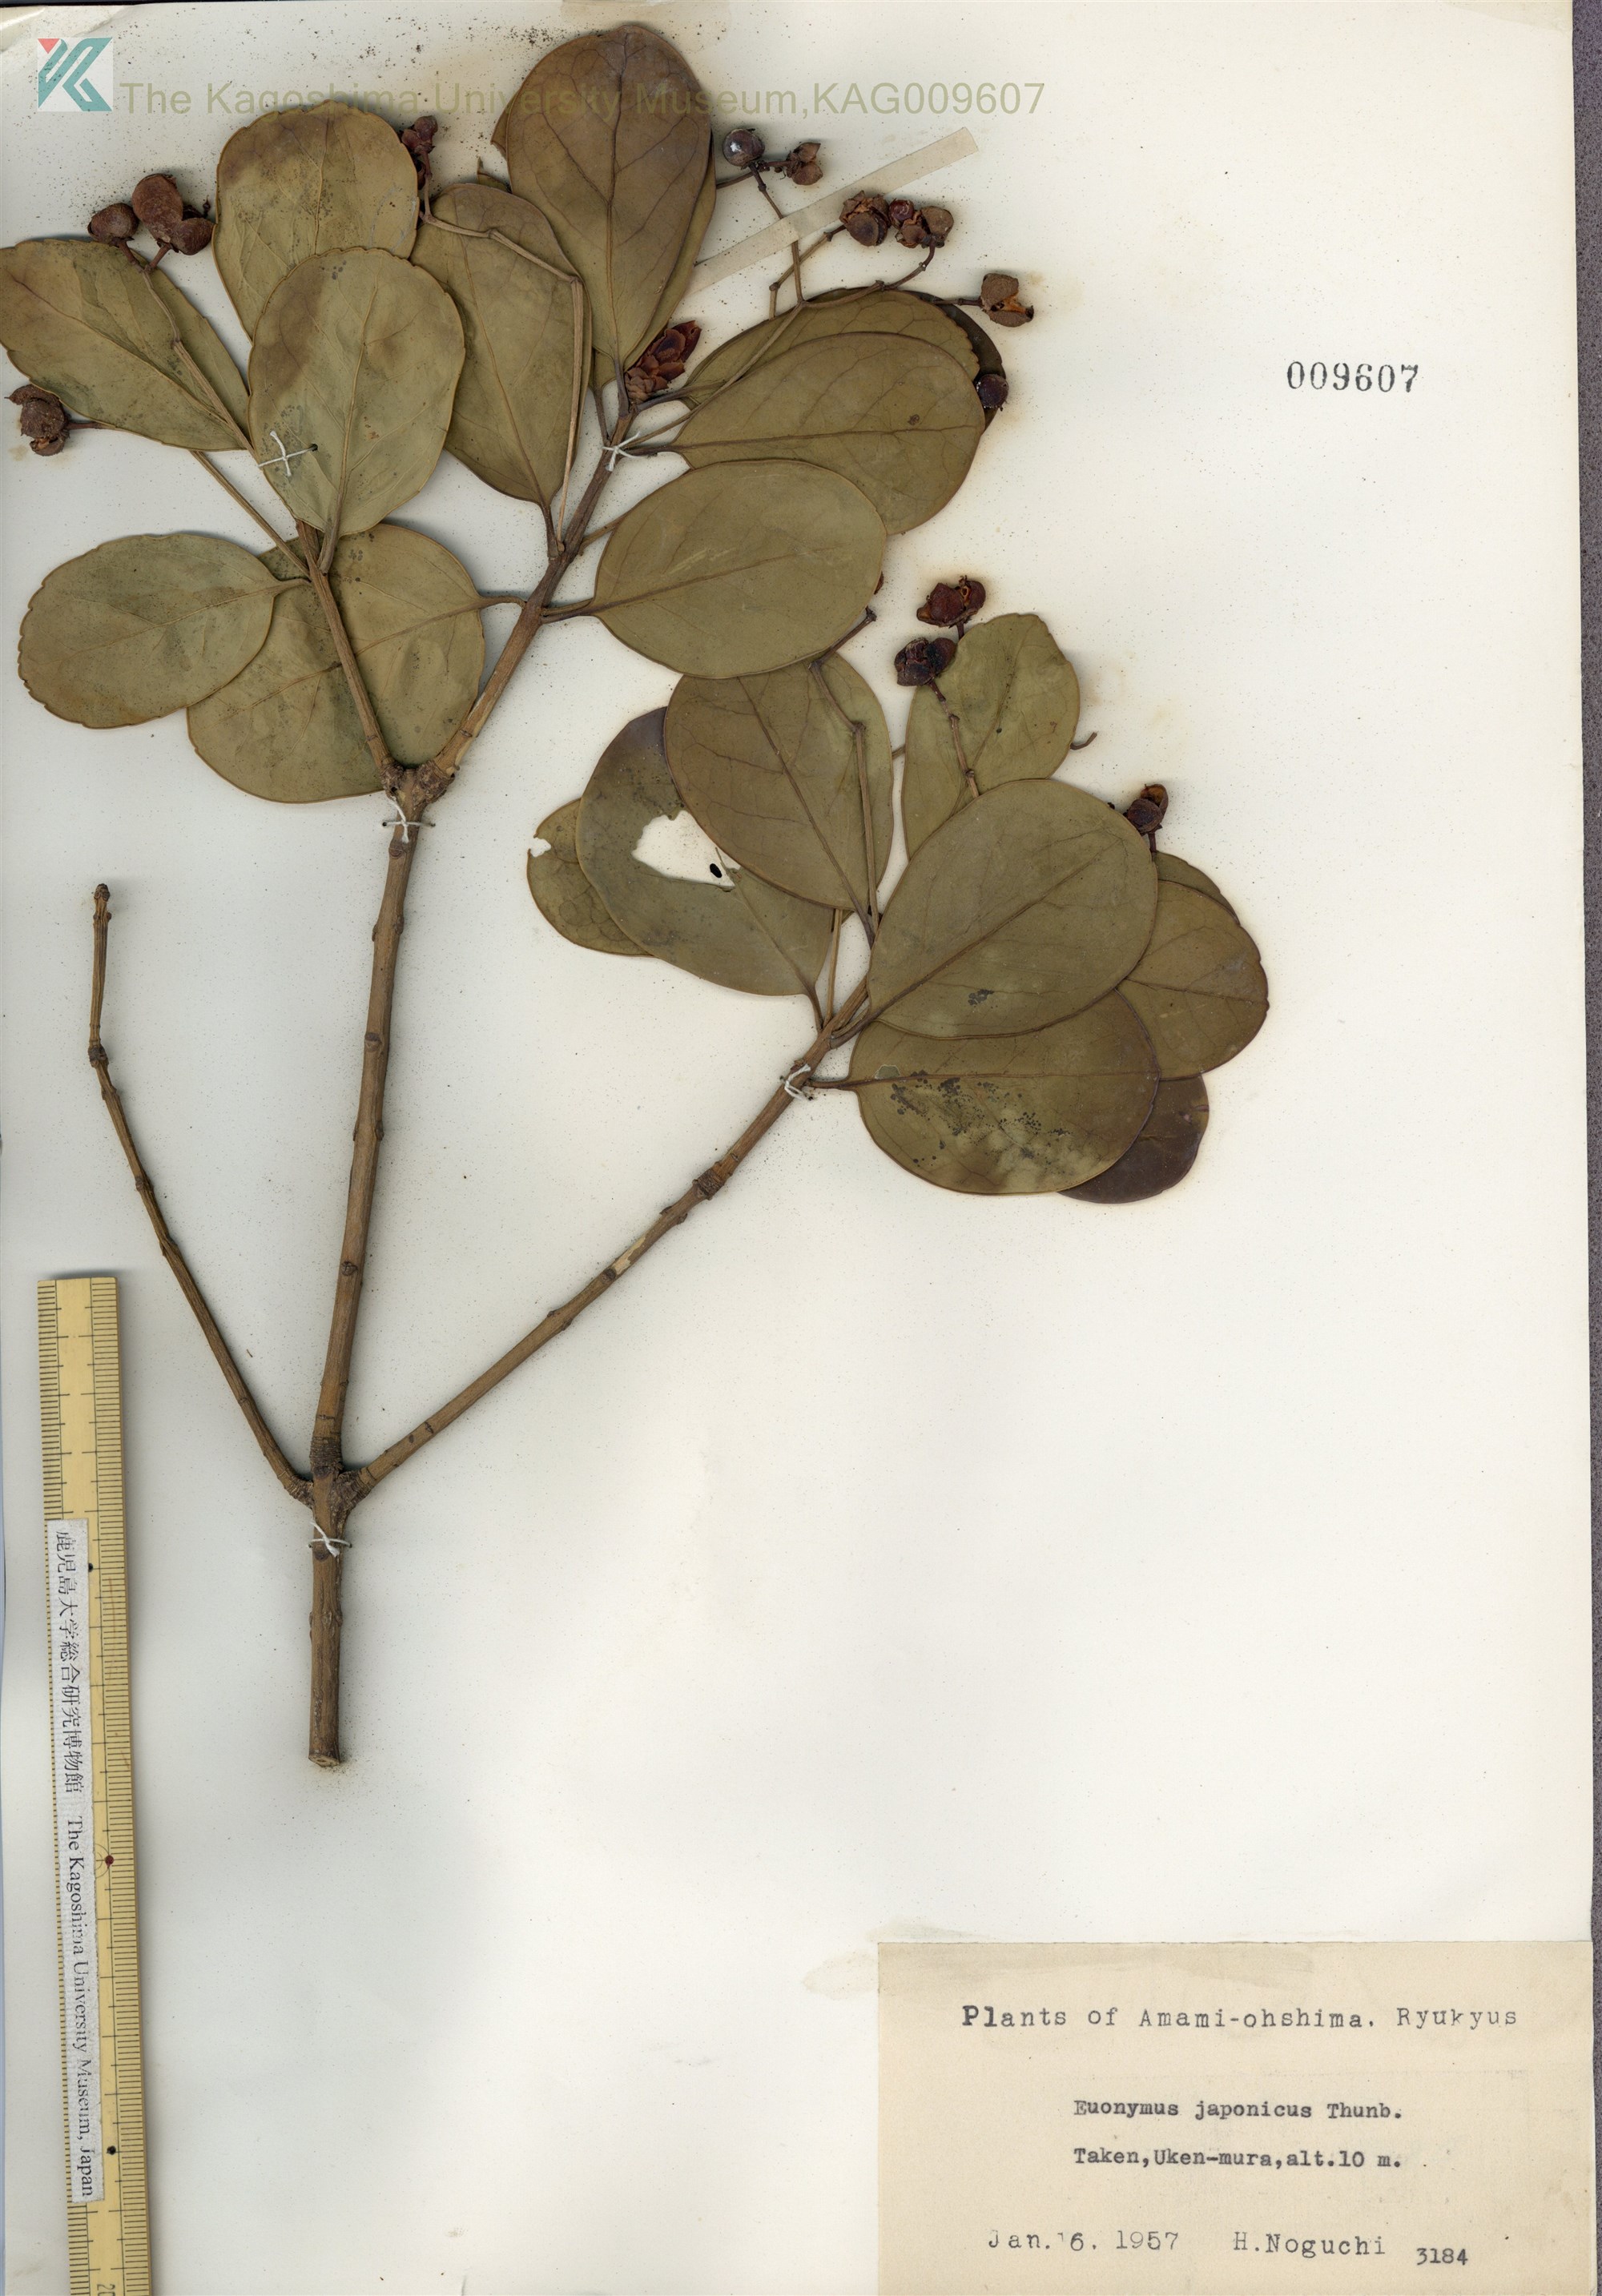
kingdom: Plantae
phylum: Tracheophyta
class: Magnoliopsida
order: Celastrales
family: Celastraceae
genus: Euonymus
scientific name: Euonymus japonicus
